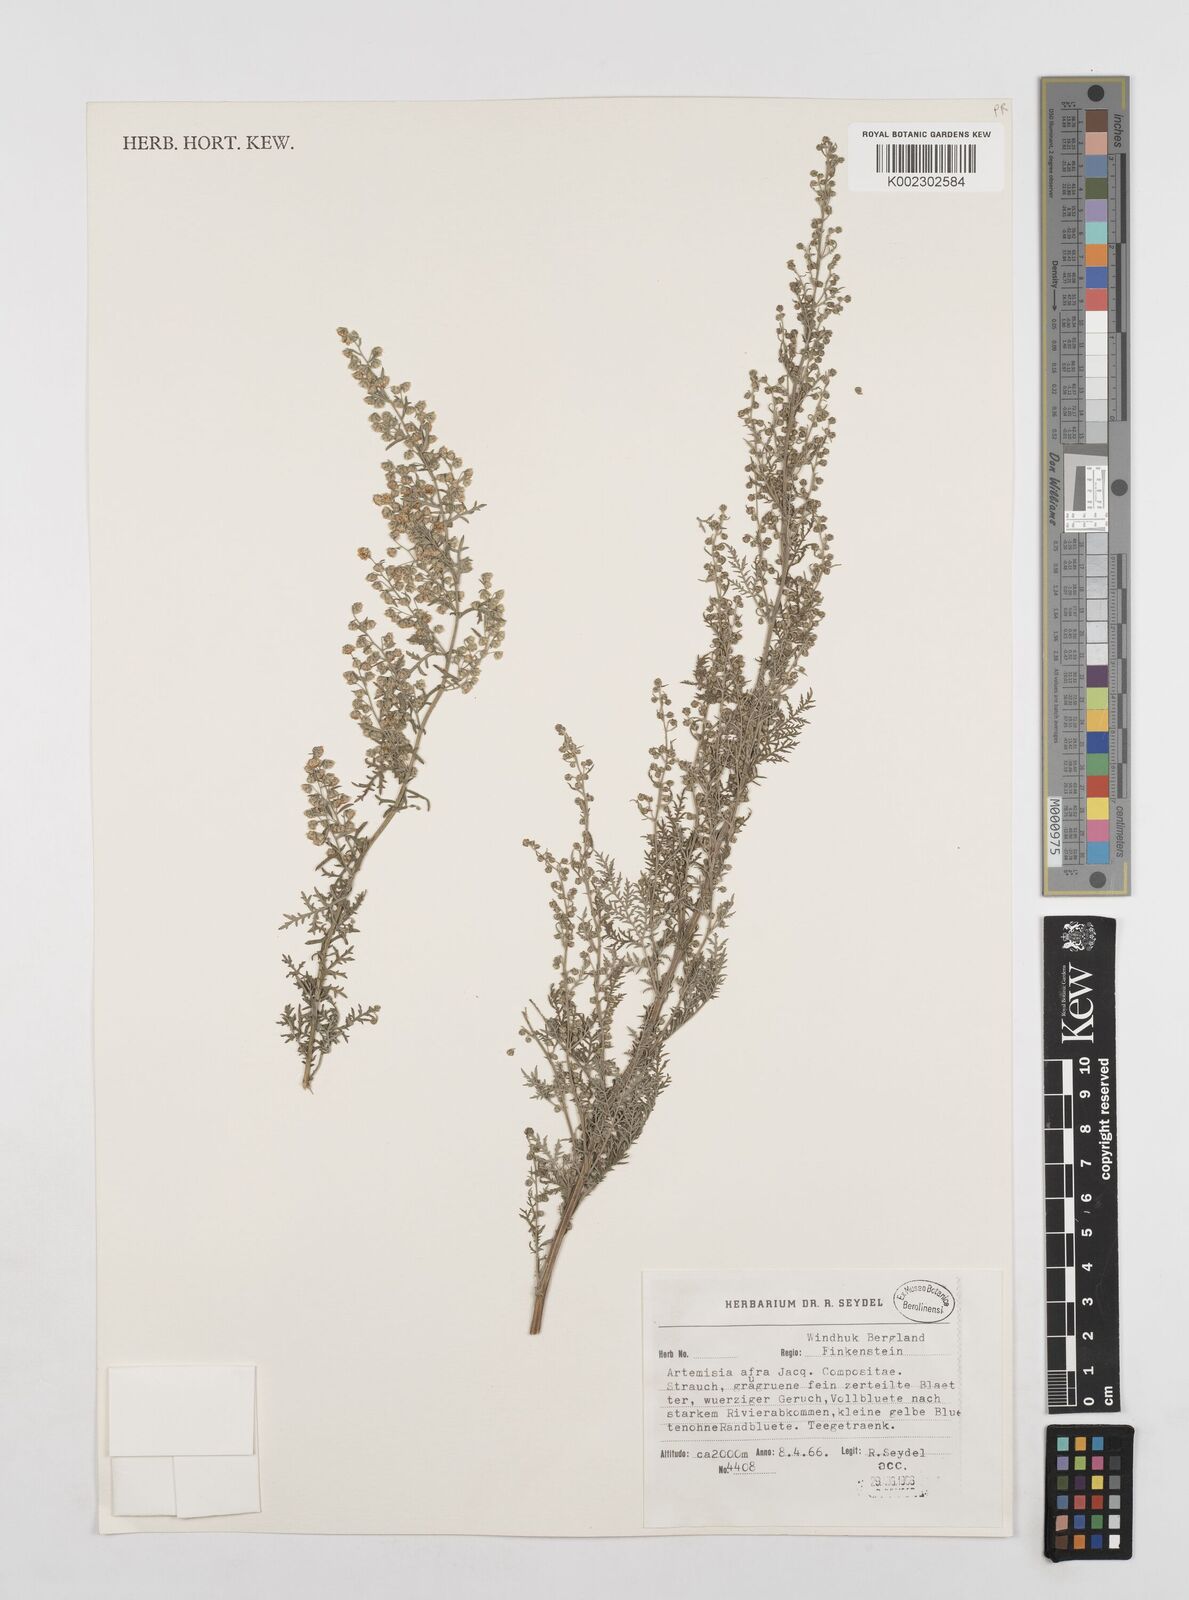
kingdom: Plantae
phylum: Tracheophyta
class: Magnoliopsida
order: Asterales
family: Asteraceae
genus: Artemisia
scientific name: Artemisia afra
